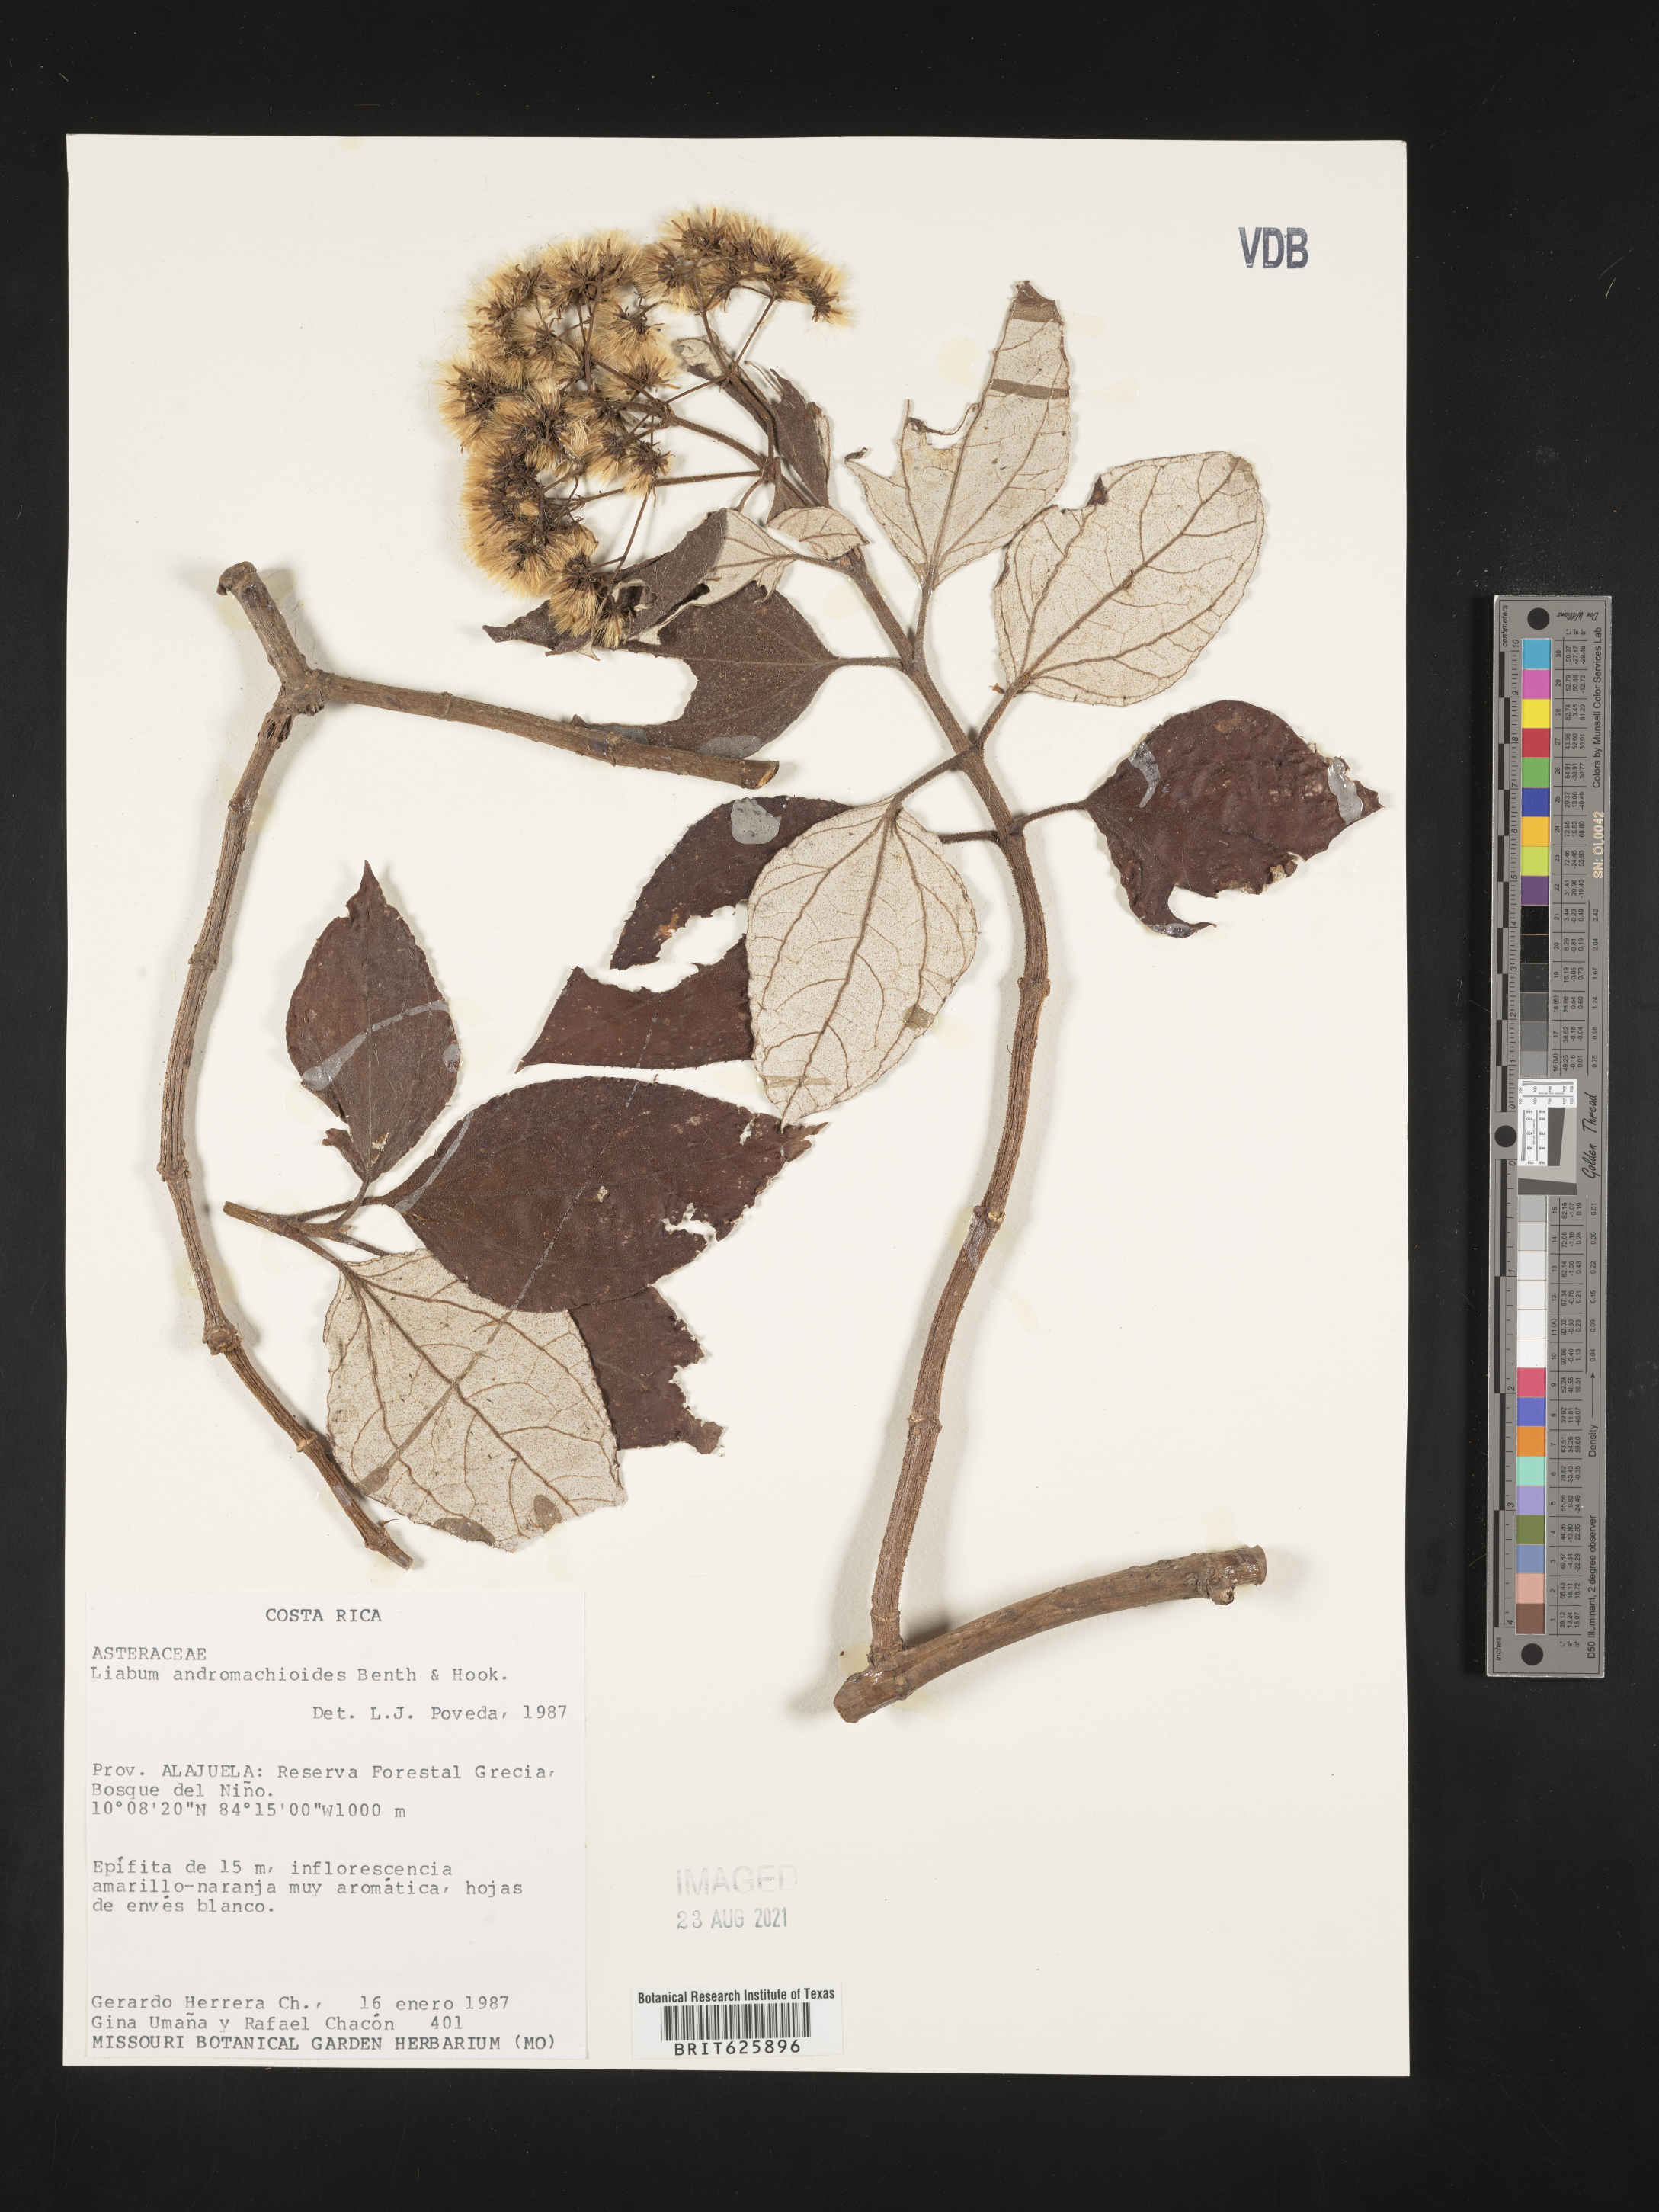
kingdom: Plantae
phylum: Tracheophyta
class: Magnoliopsida
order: Asterales
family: Asteraceae
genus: Sinclairia
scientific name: Sinclairia andromachioides
